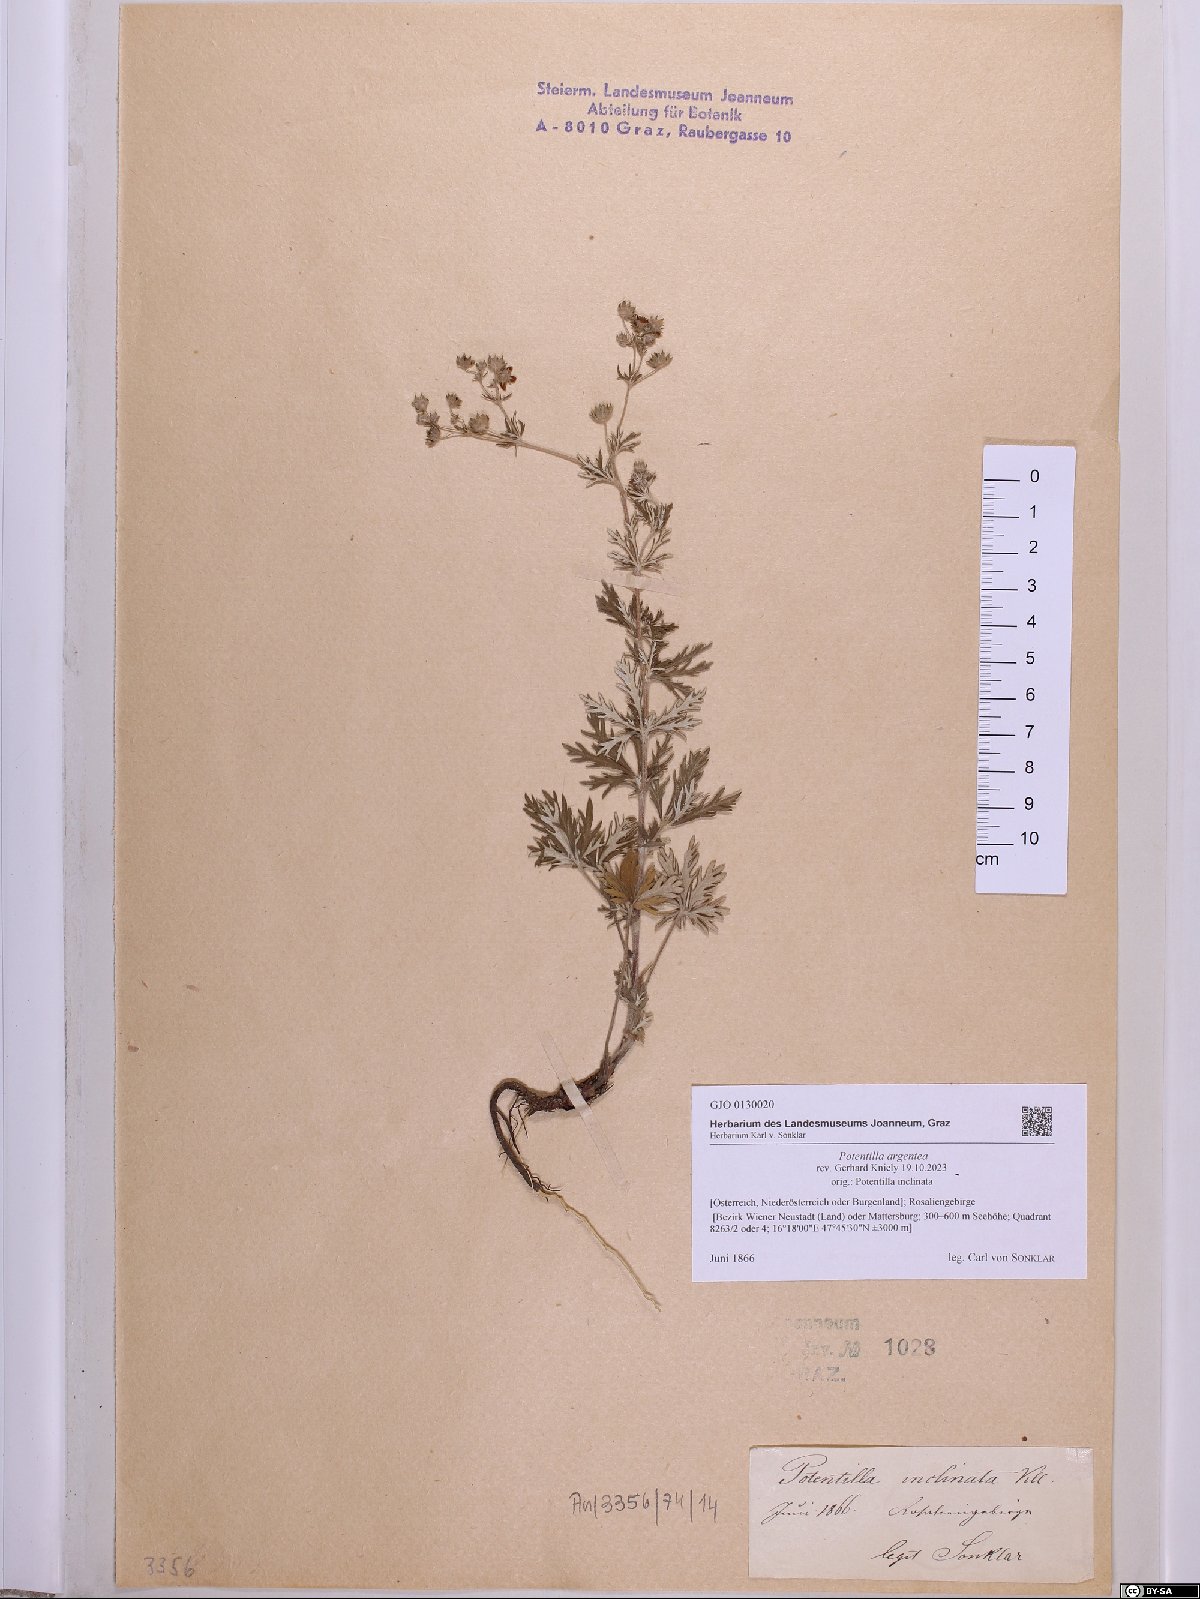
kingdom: Plantae
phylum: Tracheophyta
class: Magnoliopsida
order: Rosales
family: Rosaceae
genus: Potentilla
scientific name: Potentilla argentea
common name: Hoary cinquefoil
